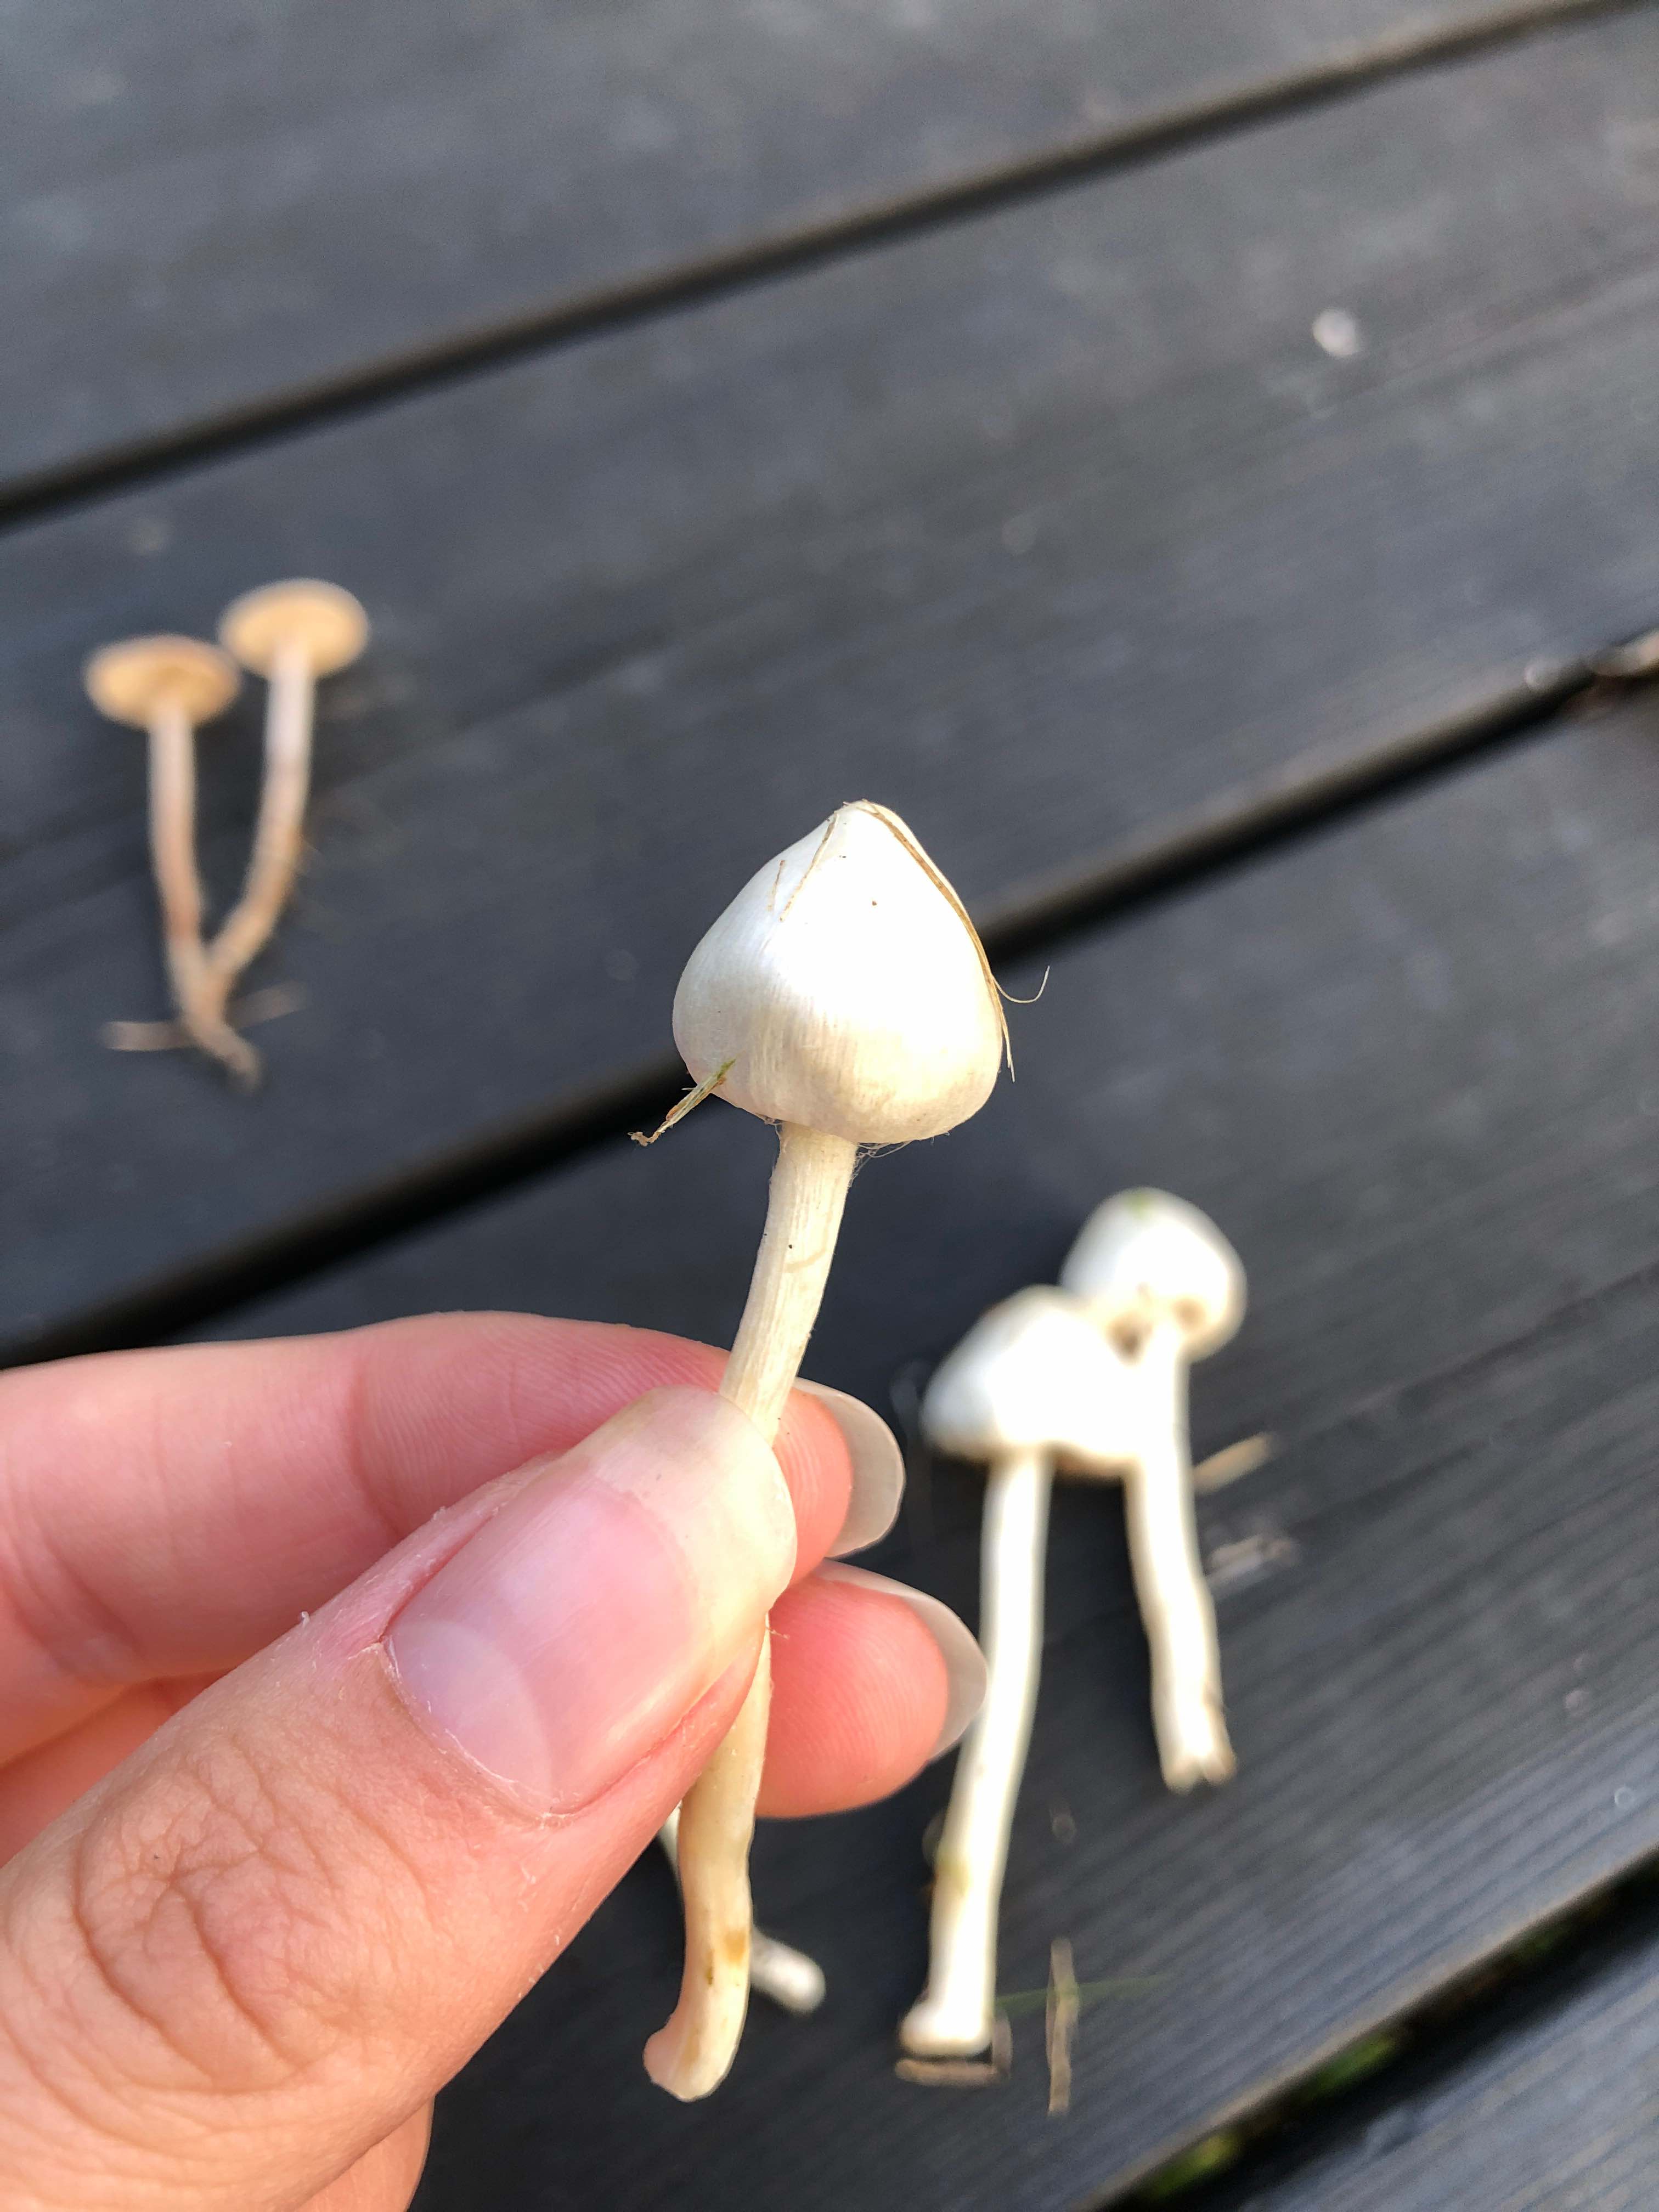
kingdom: Fungi
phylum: Basidiomycota
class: Agaricomycetes
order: Agaricales
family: Inocybaceae
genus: Inocybe
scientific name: Inocybe
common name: almindelig trævlhat
